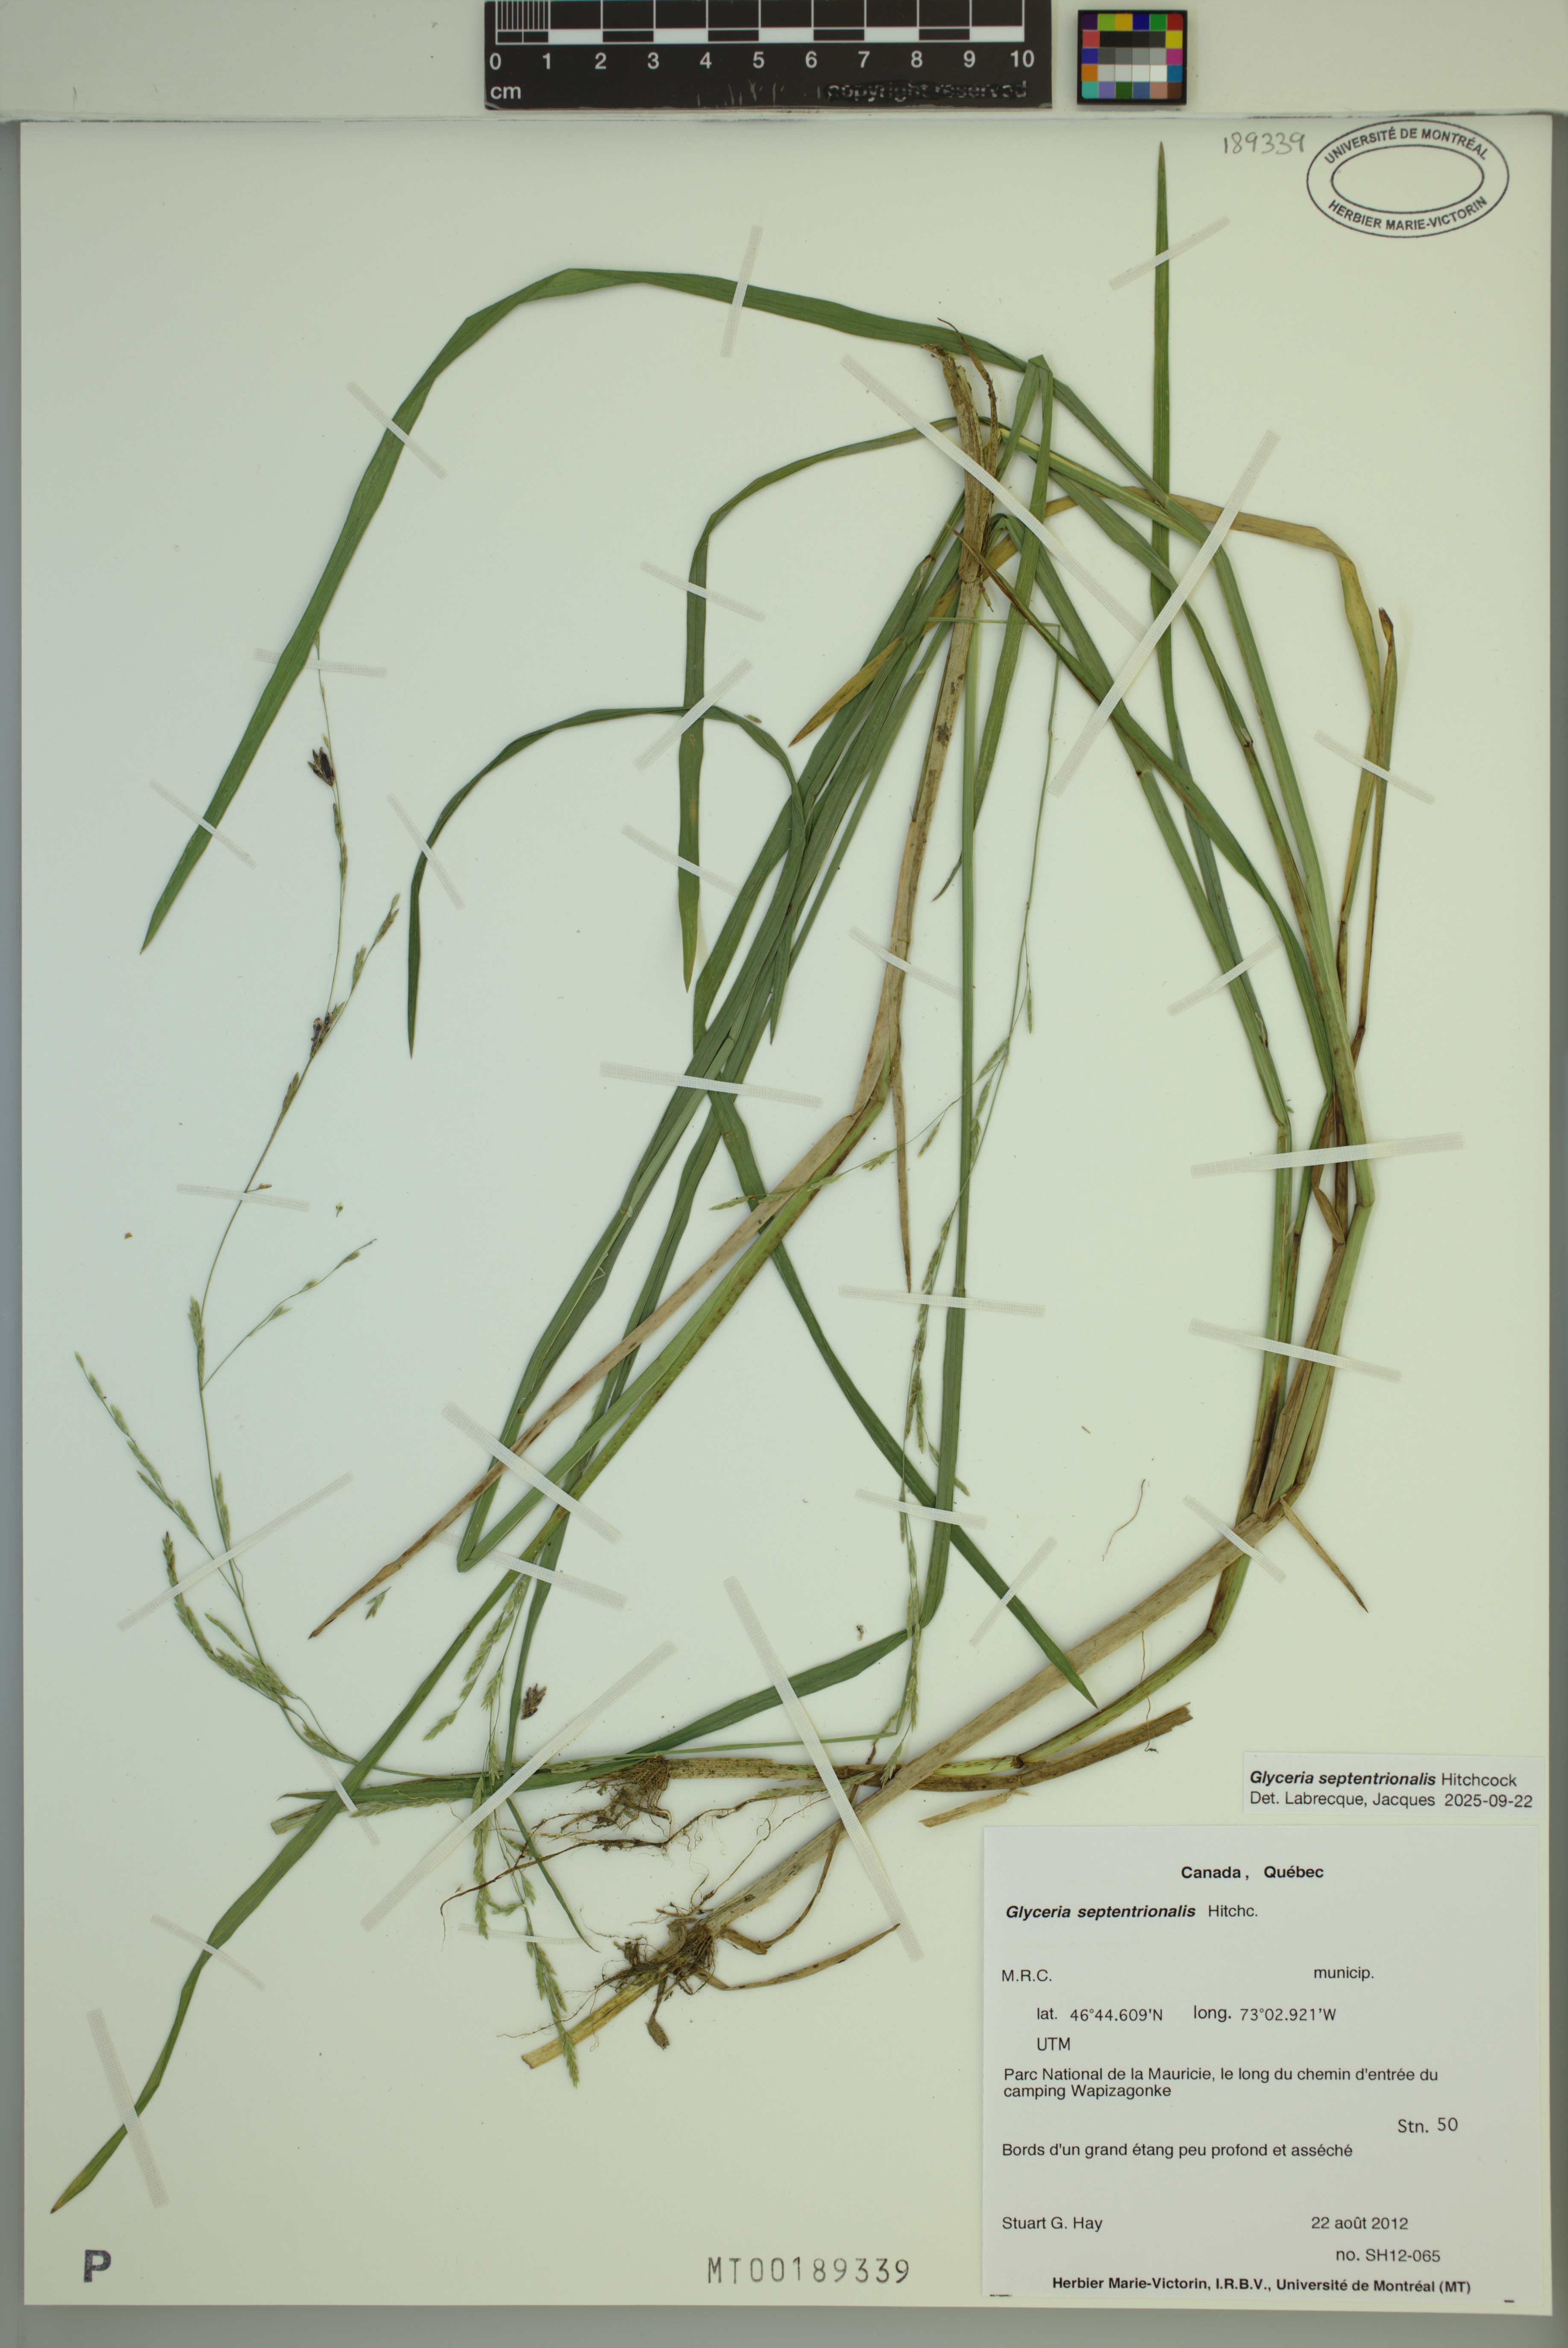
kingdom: Plantae
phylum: Tracheophyta
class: Liliopsida
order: Poales
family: Poaceae
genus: Glyceria
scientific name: Glyceria septentrionalis
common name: Eastern mannagrass
